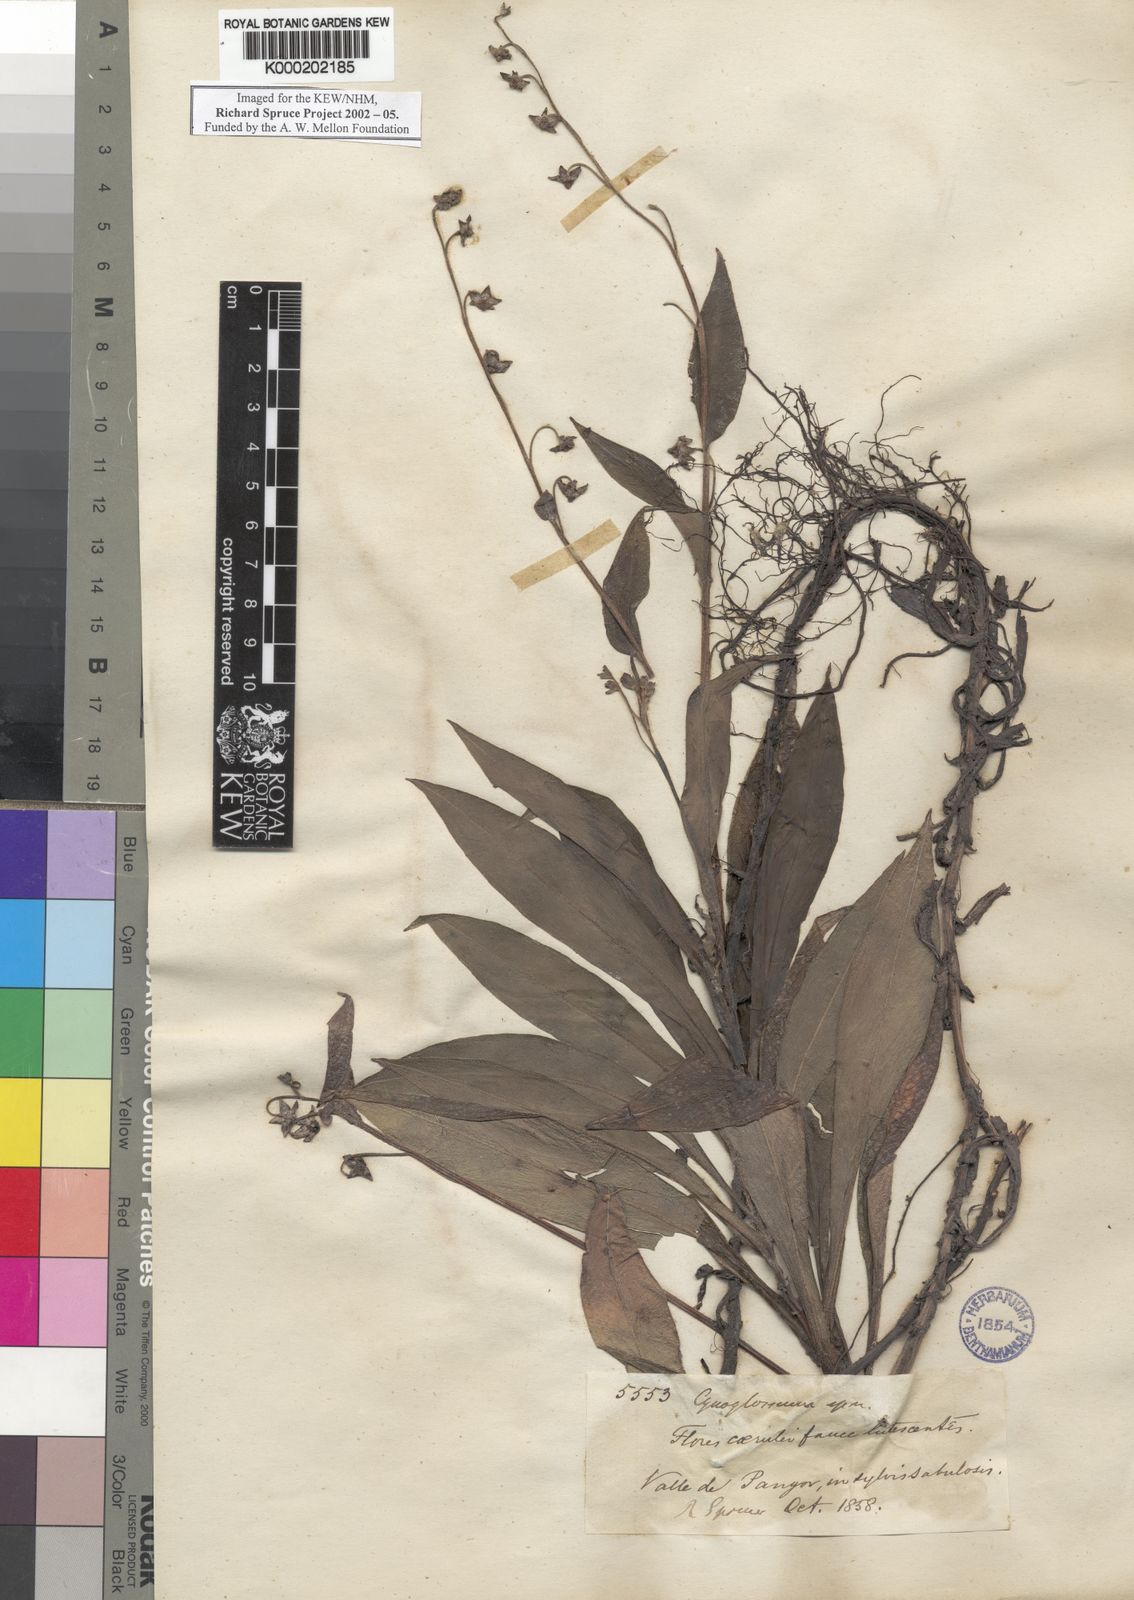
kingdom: Plantae
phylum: Tracheophyta
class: Magnoliopsida
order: Boraginales
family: Boraginaceae
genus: Cynoglossum
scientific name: Cynoglossum
